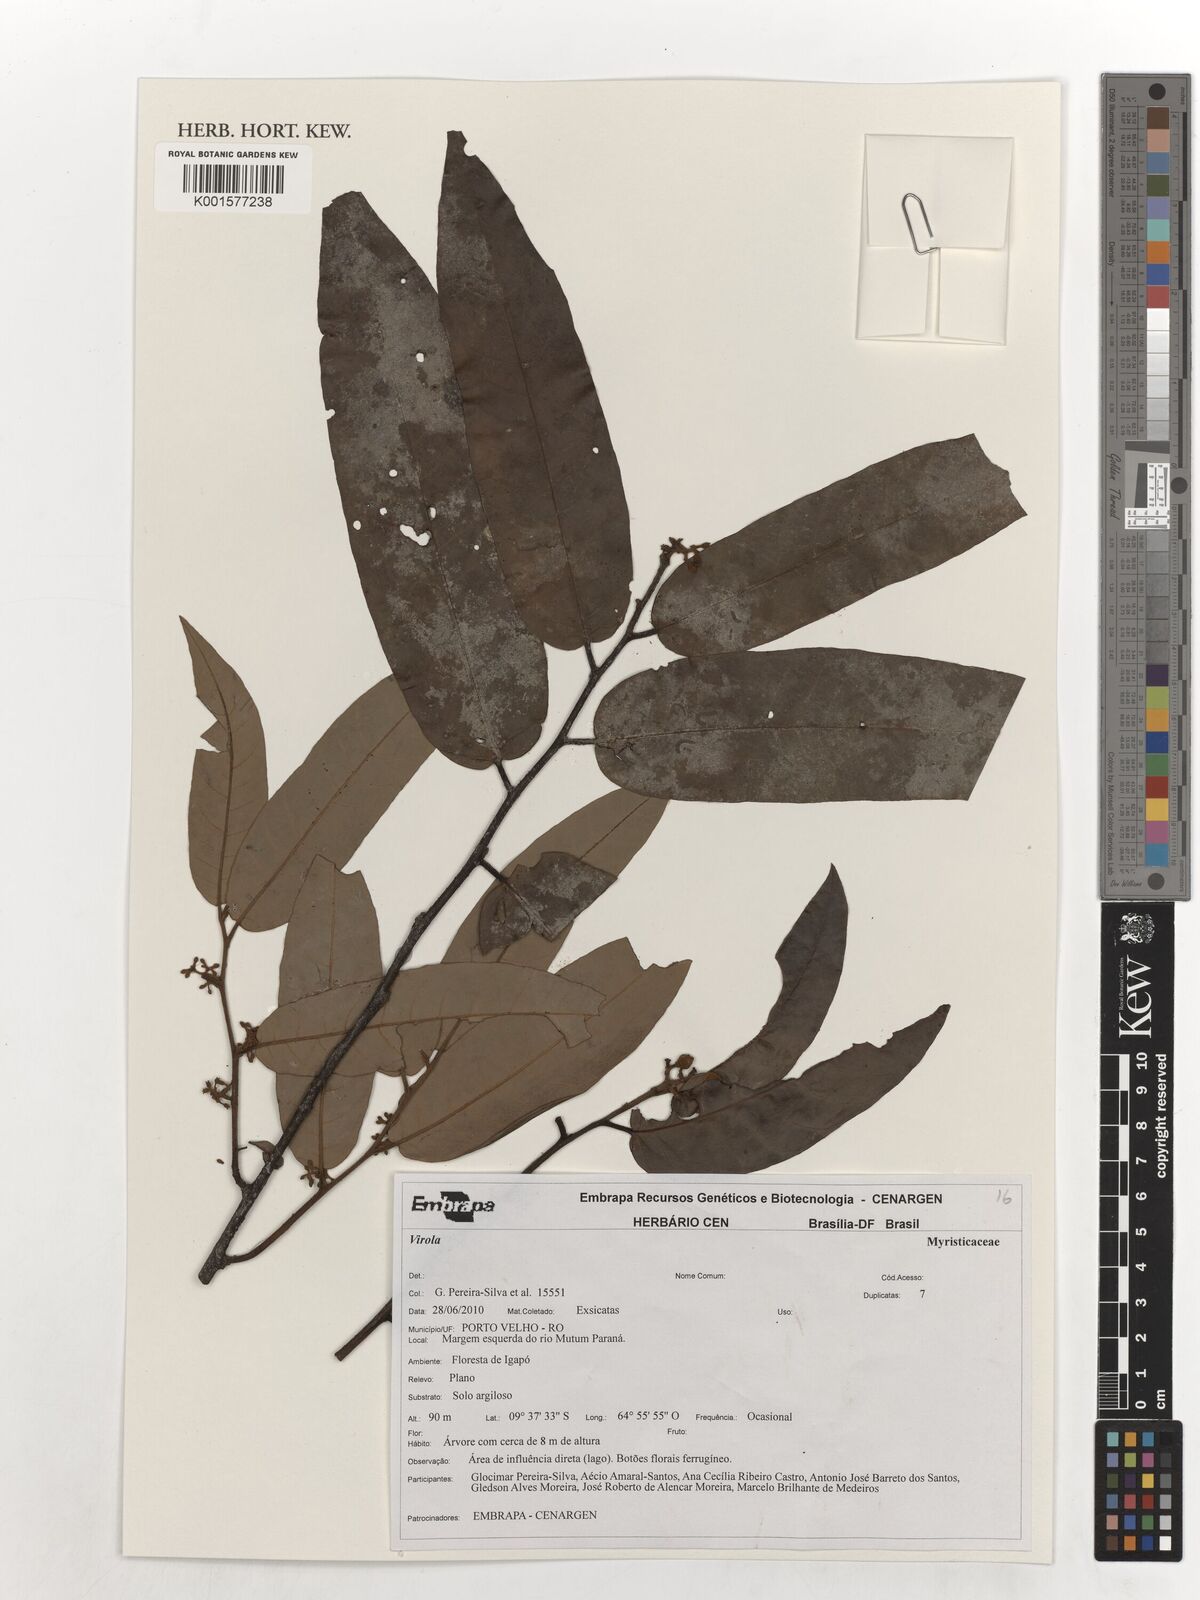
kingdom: Plantae
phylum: Tracheophyta
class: Magnoliopsida
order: Magnoliales
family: Myristicaceae
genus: Virola
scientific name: Virola
